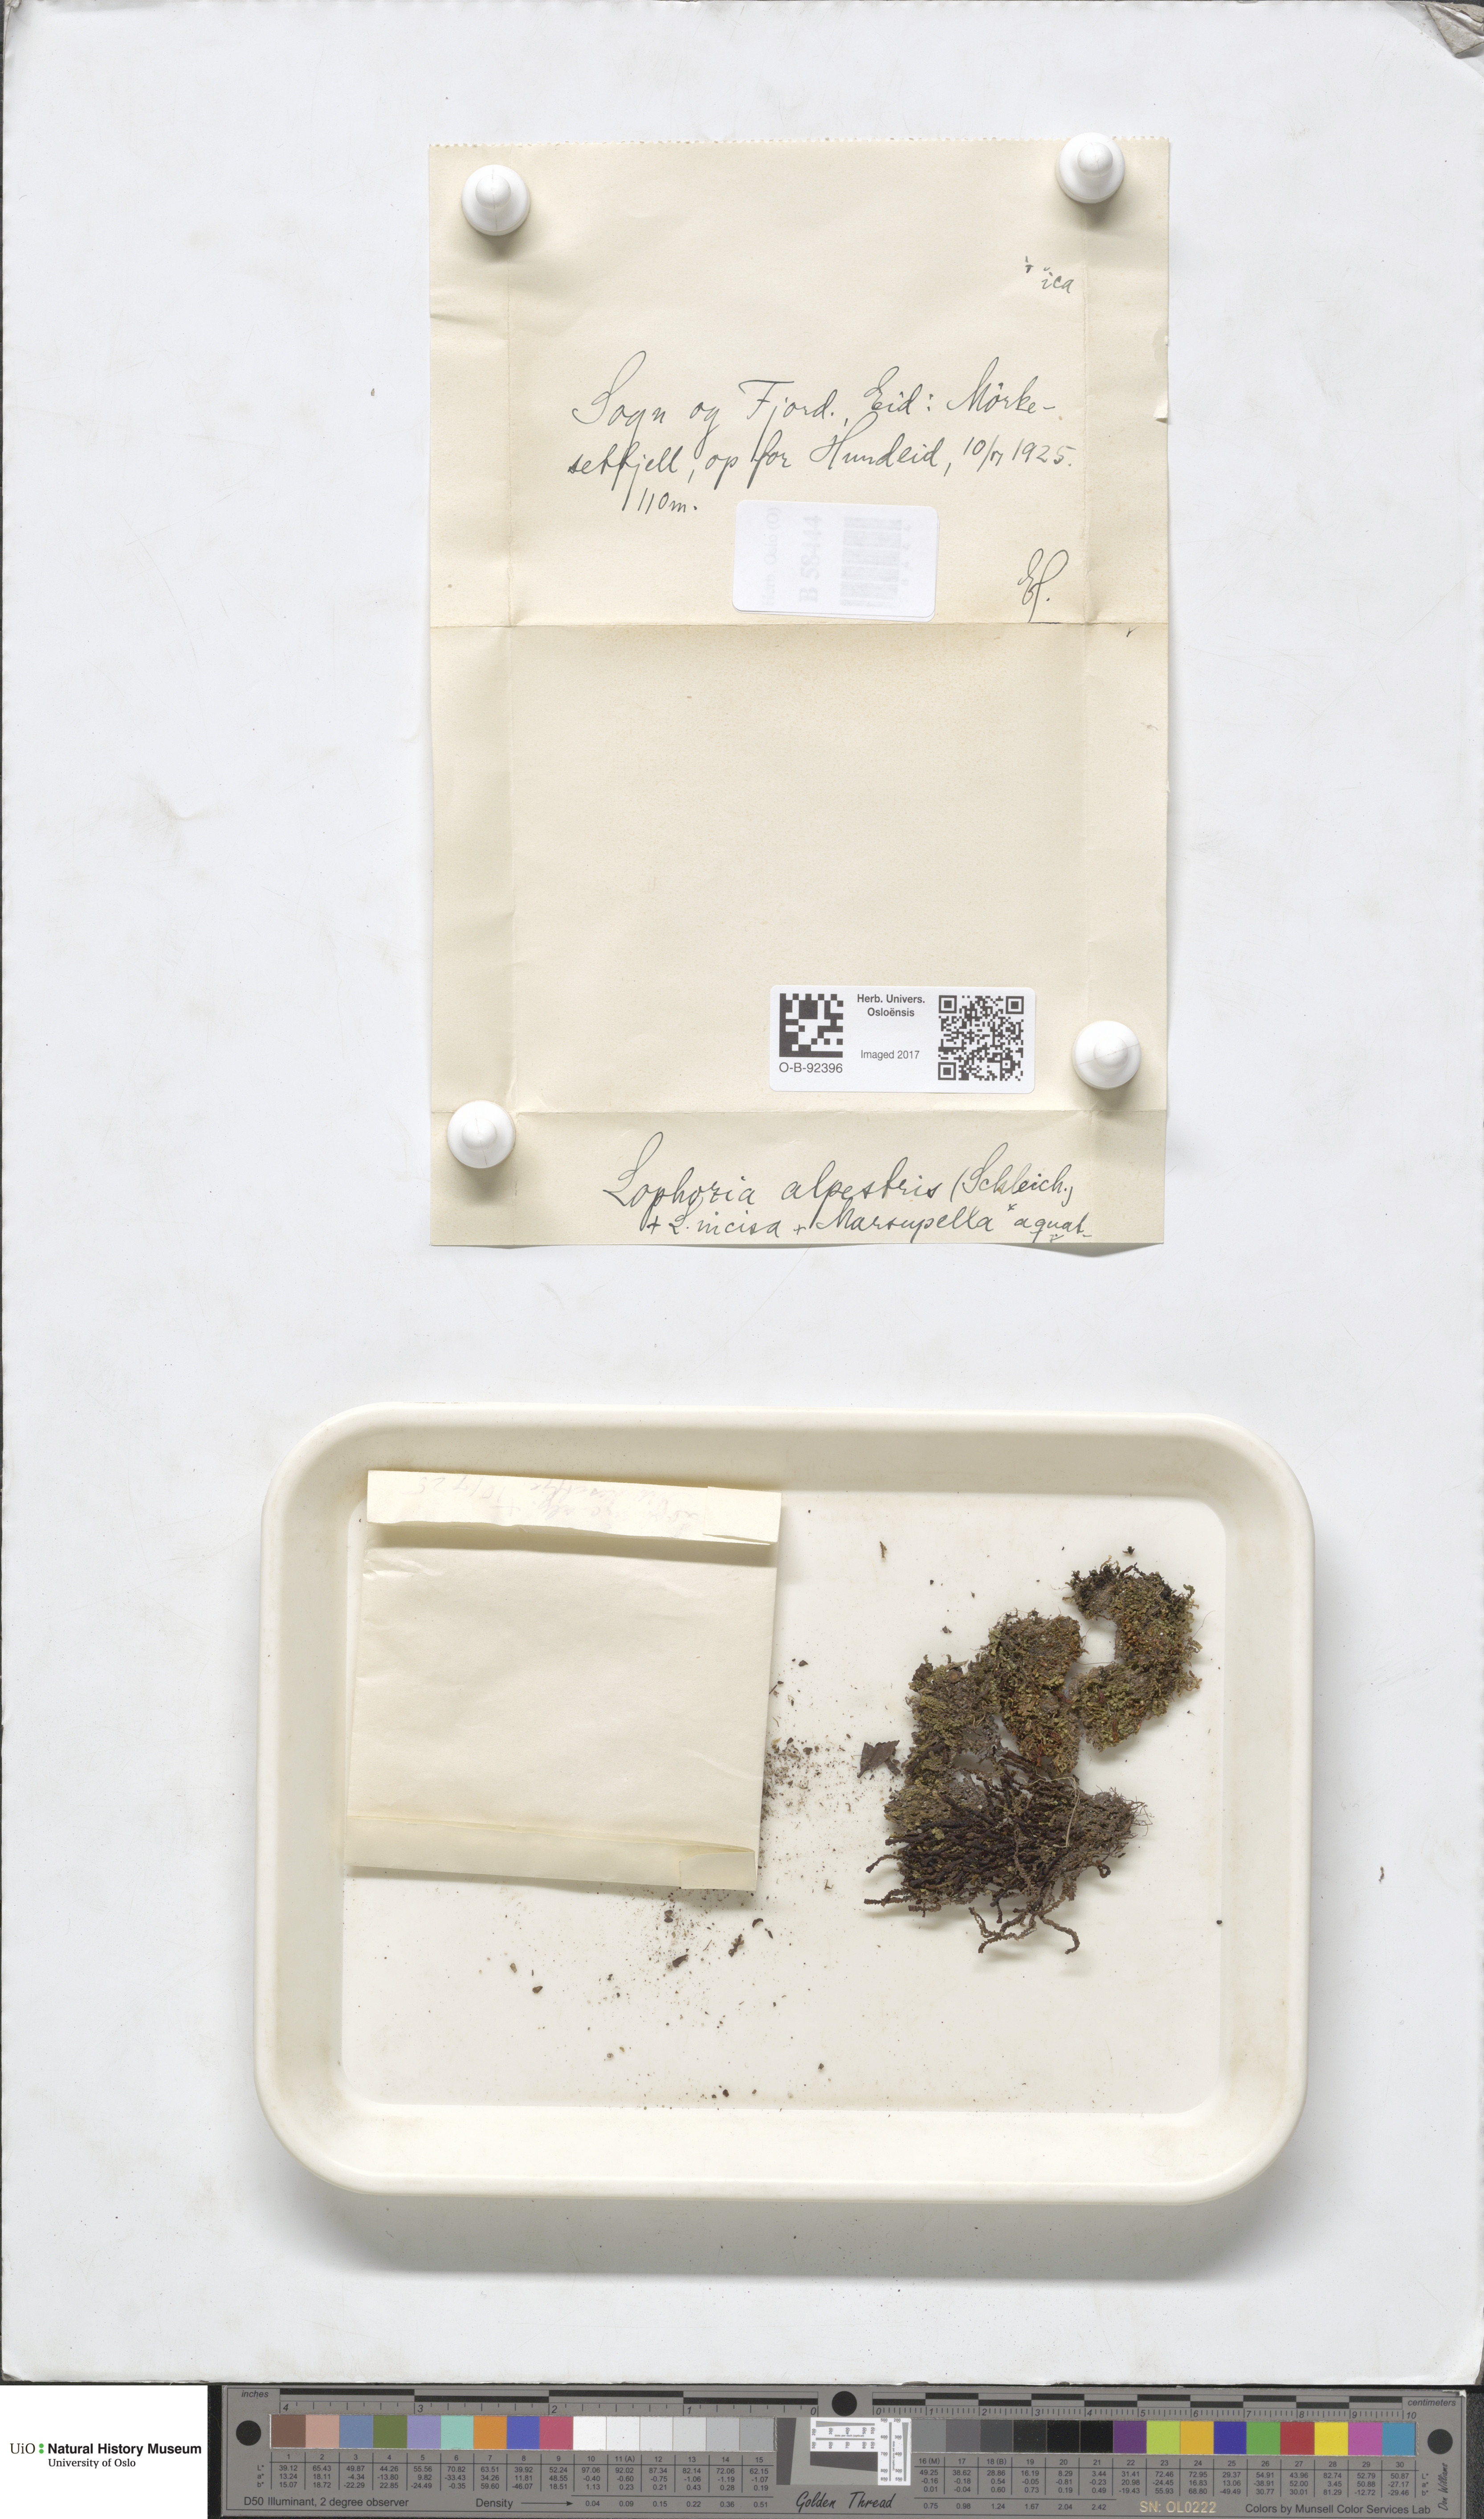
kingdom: Plantae
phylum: Marchantiophyta
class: Jungermanniopsida
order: Jungermanniales
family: Anastrophyllaceae
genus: Barbilophozia
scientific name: Barbilophozia sudetica
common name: Hill notchwort
